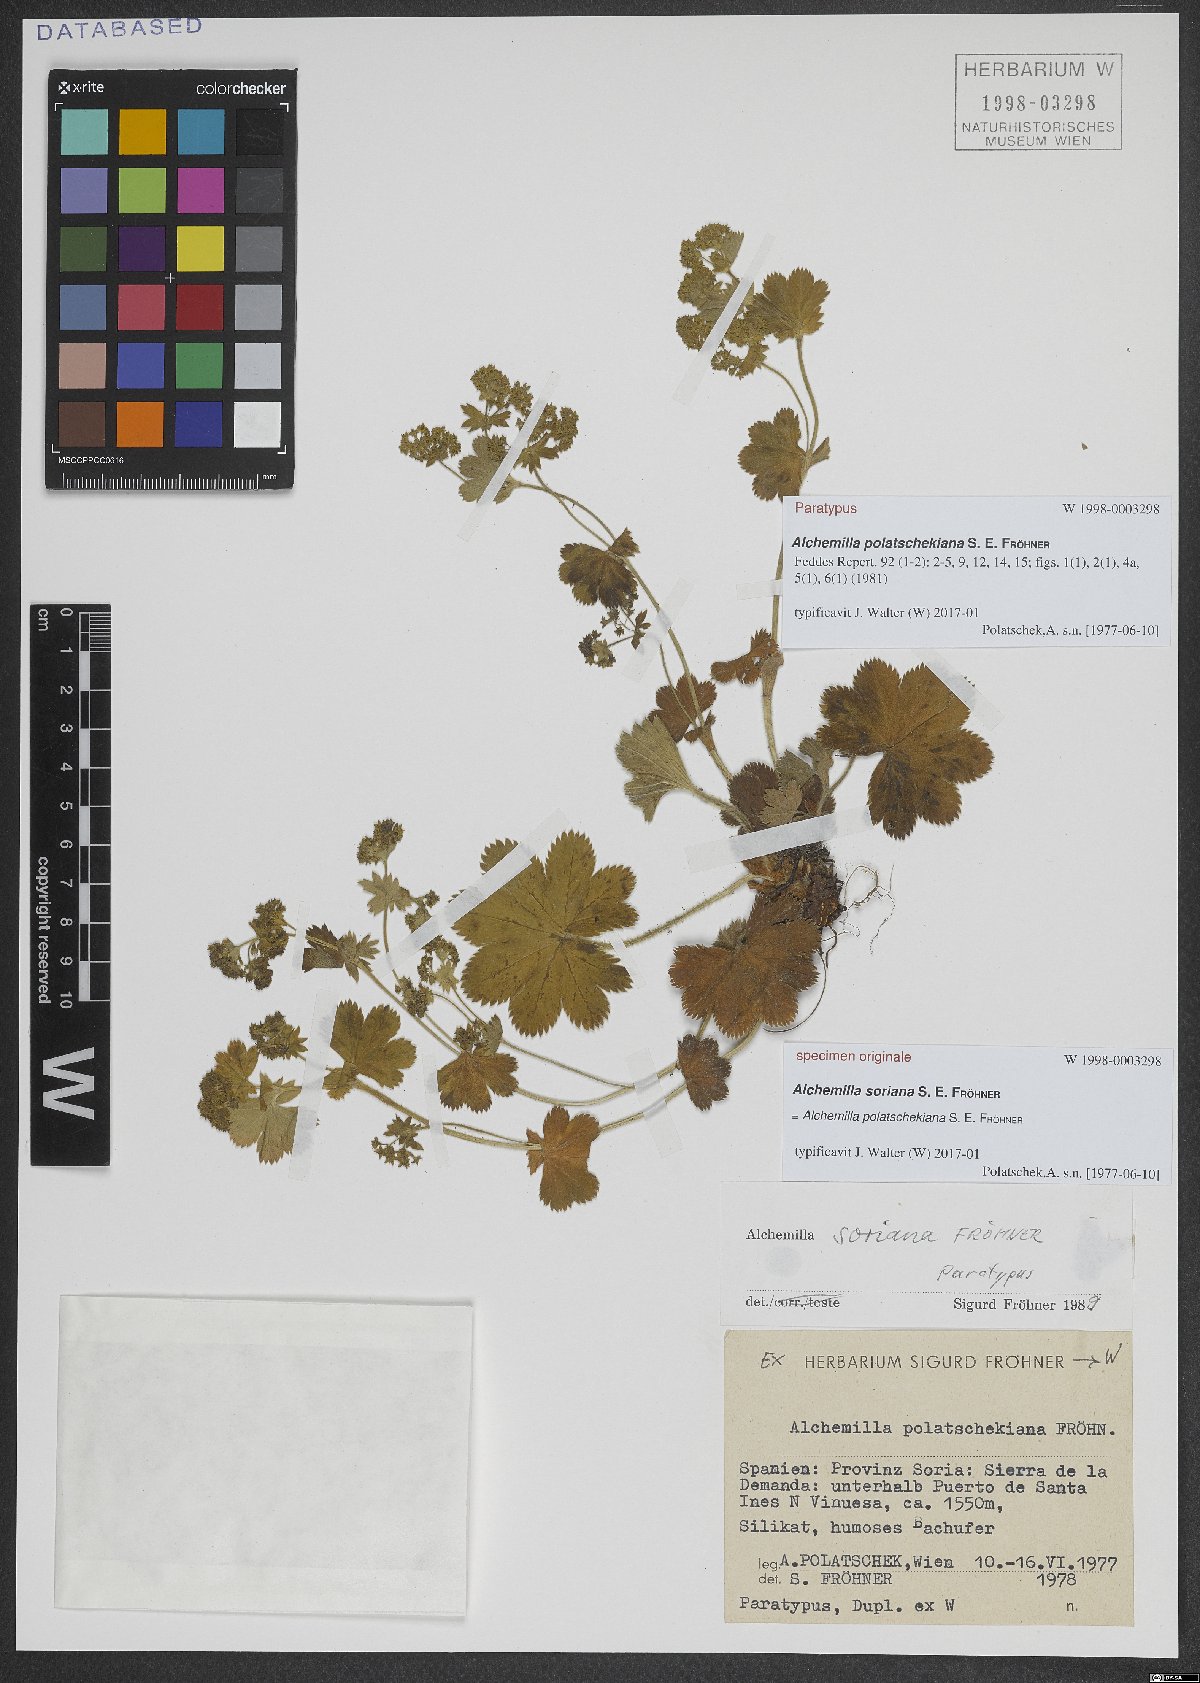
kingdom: Plantae
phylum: Tracheophyta
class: Magnoliopsida
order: Rosales
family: Rosaceae
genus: Alchemilla
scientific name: Alchemilla polatschekiana
